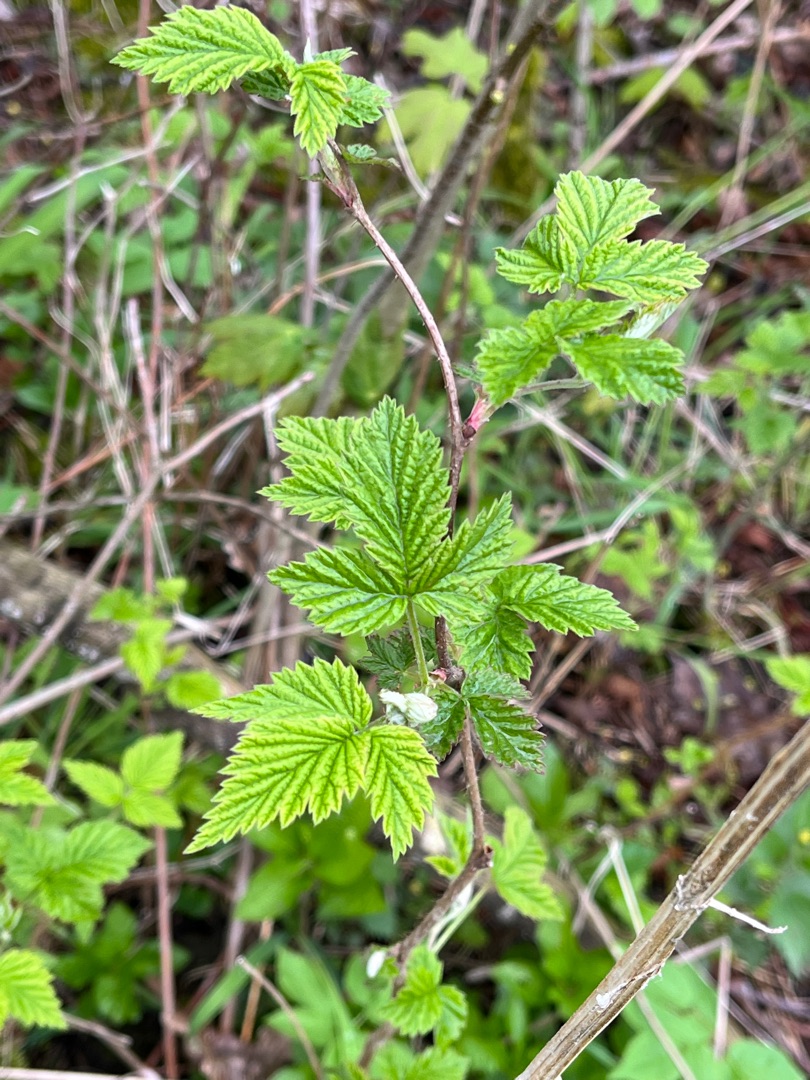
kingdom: Plantae
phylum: Tracheophyta
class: Magnoliopsida
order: Rosales
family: Rosaceae
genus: Rubus
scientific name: Rubus idaeus
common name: Hindbær
